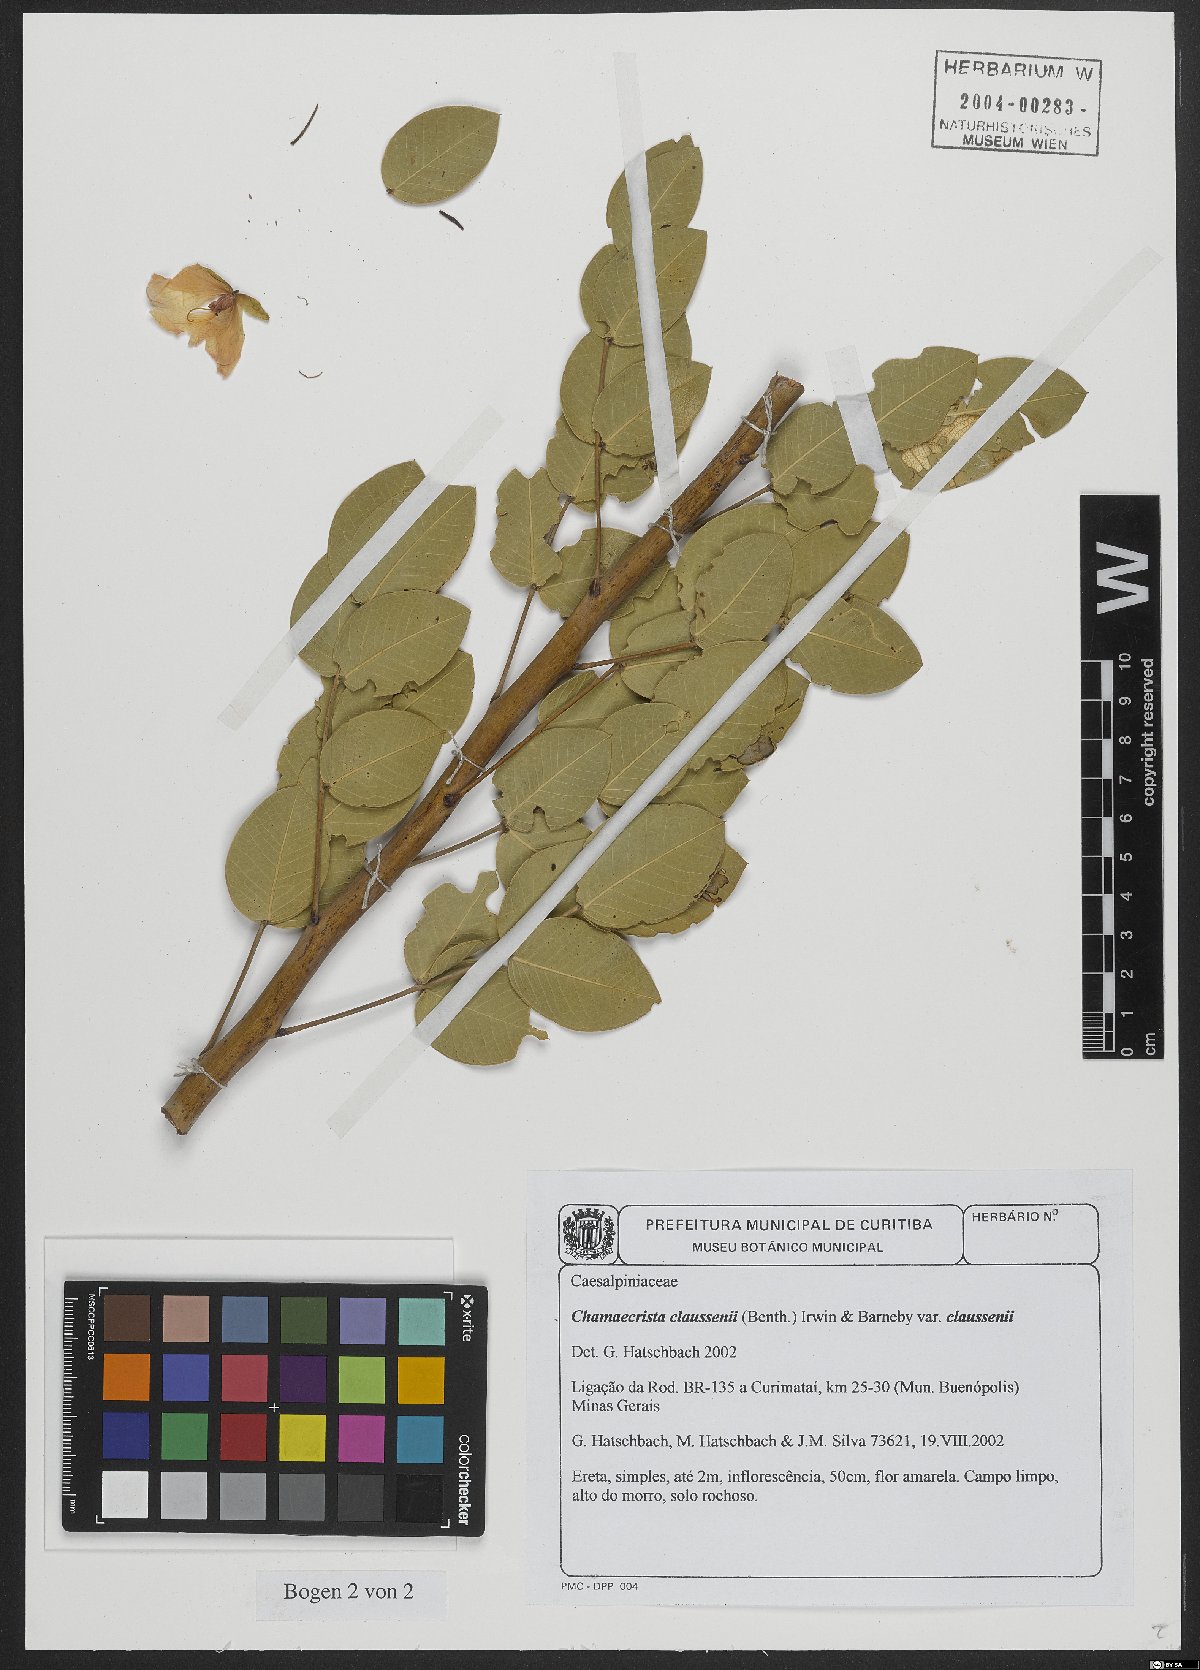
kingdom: Plantae
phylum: Tracheophyta
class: Magnoliopsida
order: Fabales
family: Fabaceae
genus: Chamaecrista
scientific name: Chamaecrista claussenii
